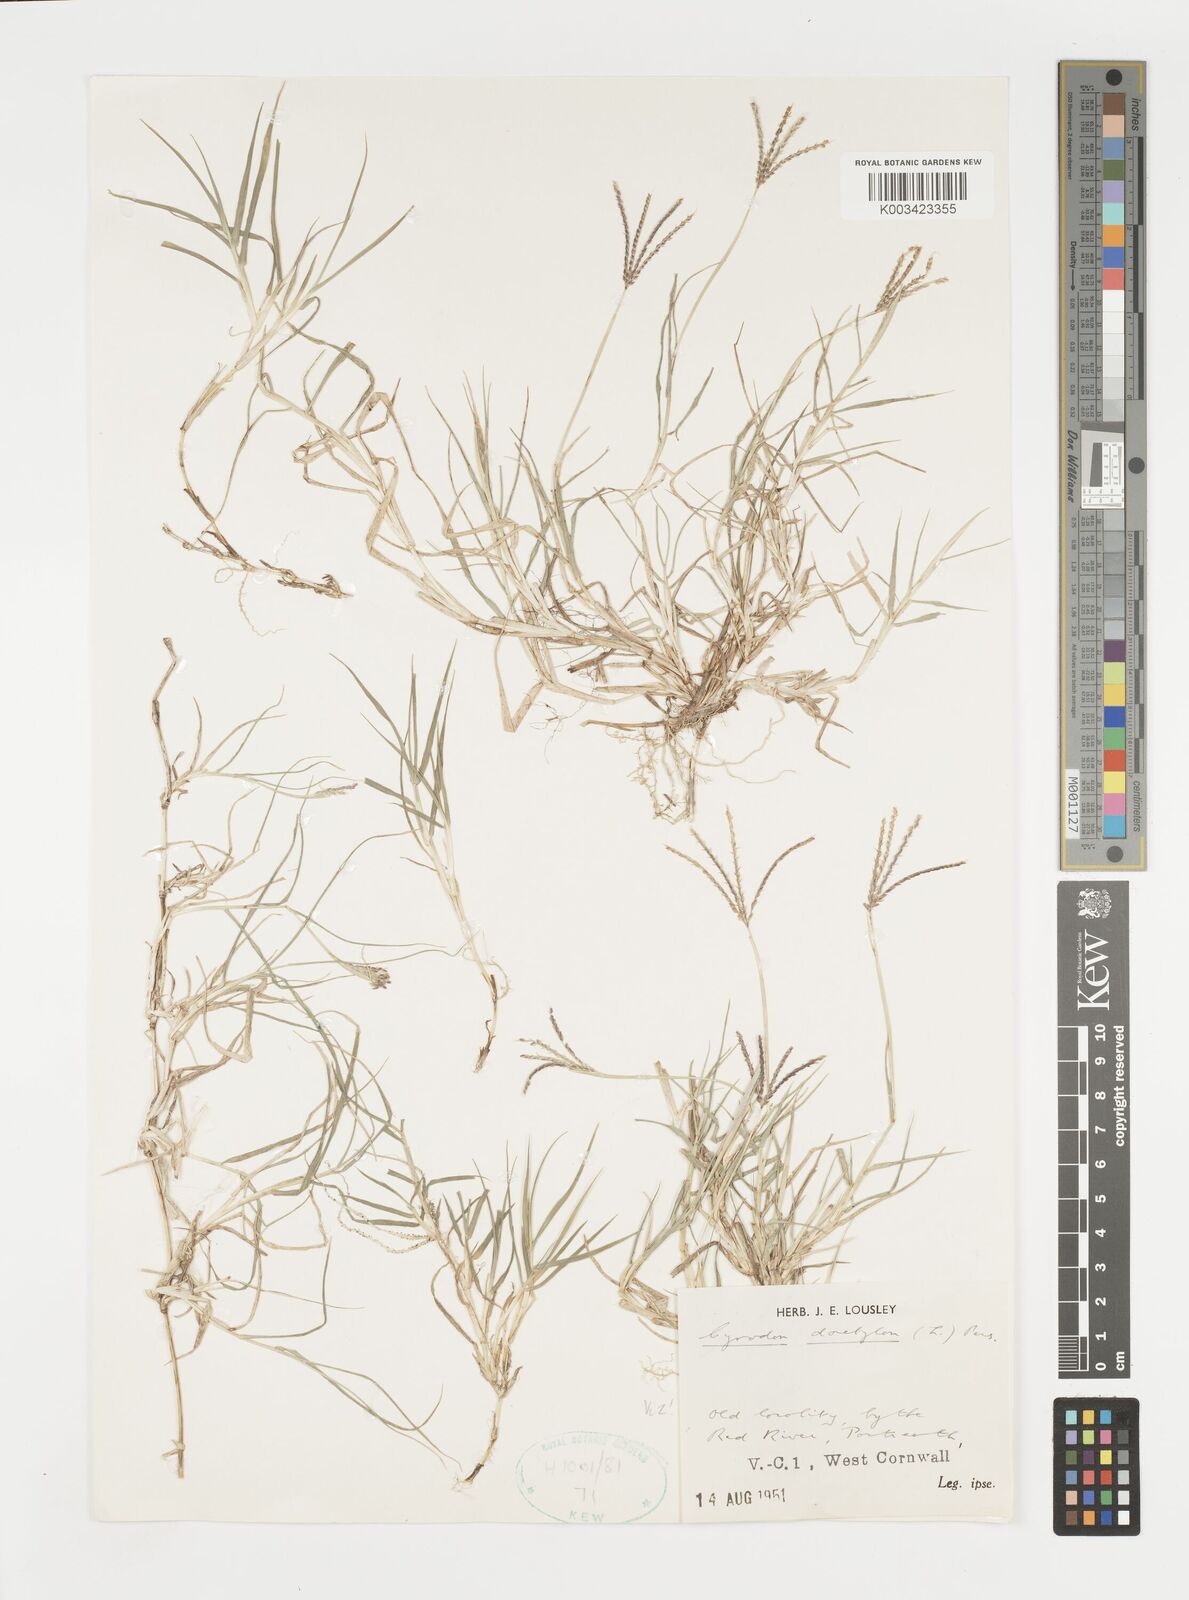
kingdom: Plantae
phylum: Tracheophyta
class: Liliopsida
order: Poales
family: Poaceae
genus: Cynodon
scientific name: Cynodon dactylon
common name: Bermuda grass
